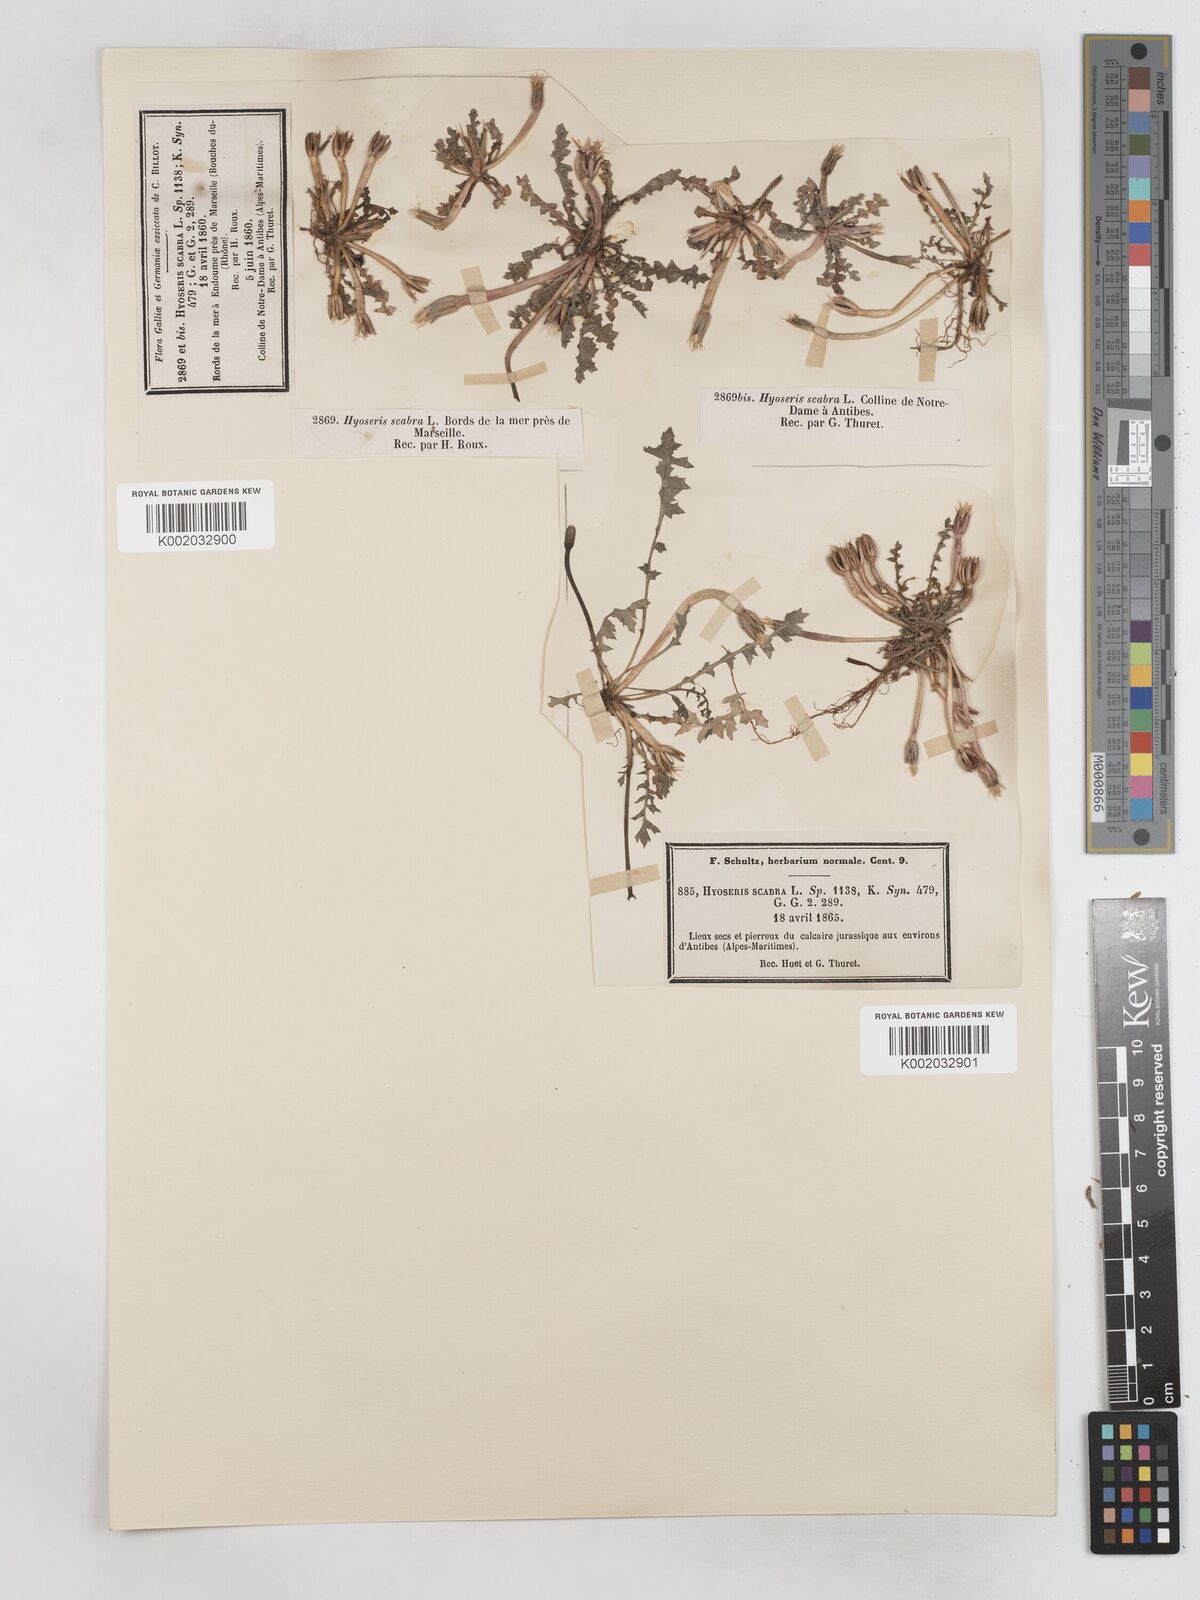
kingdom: Plantae
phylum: Tracheophyta
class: Magnoliopsida
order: Asterales
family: Asteraceae
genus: Hyoseris
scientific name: Hyoseris scabra
